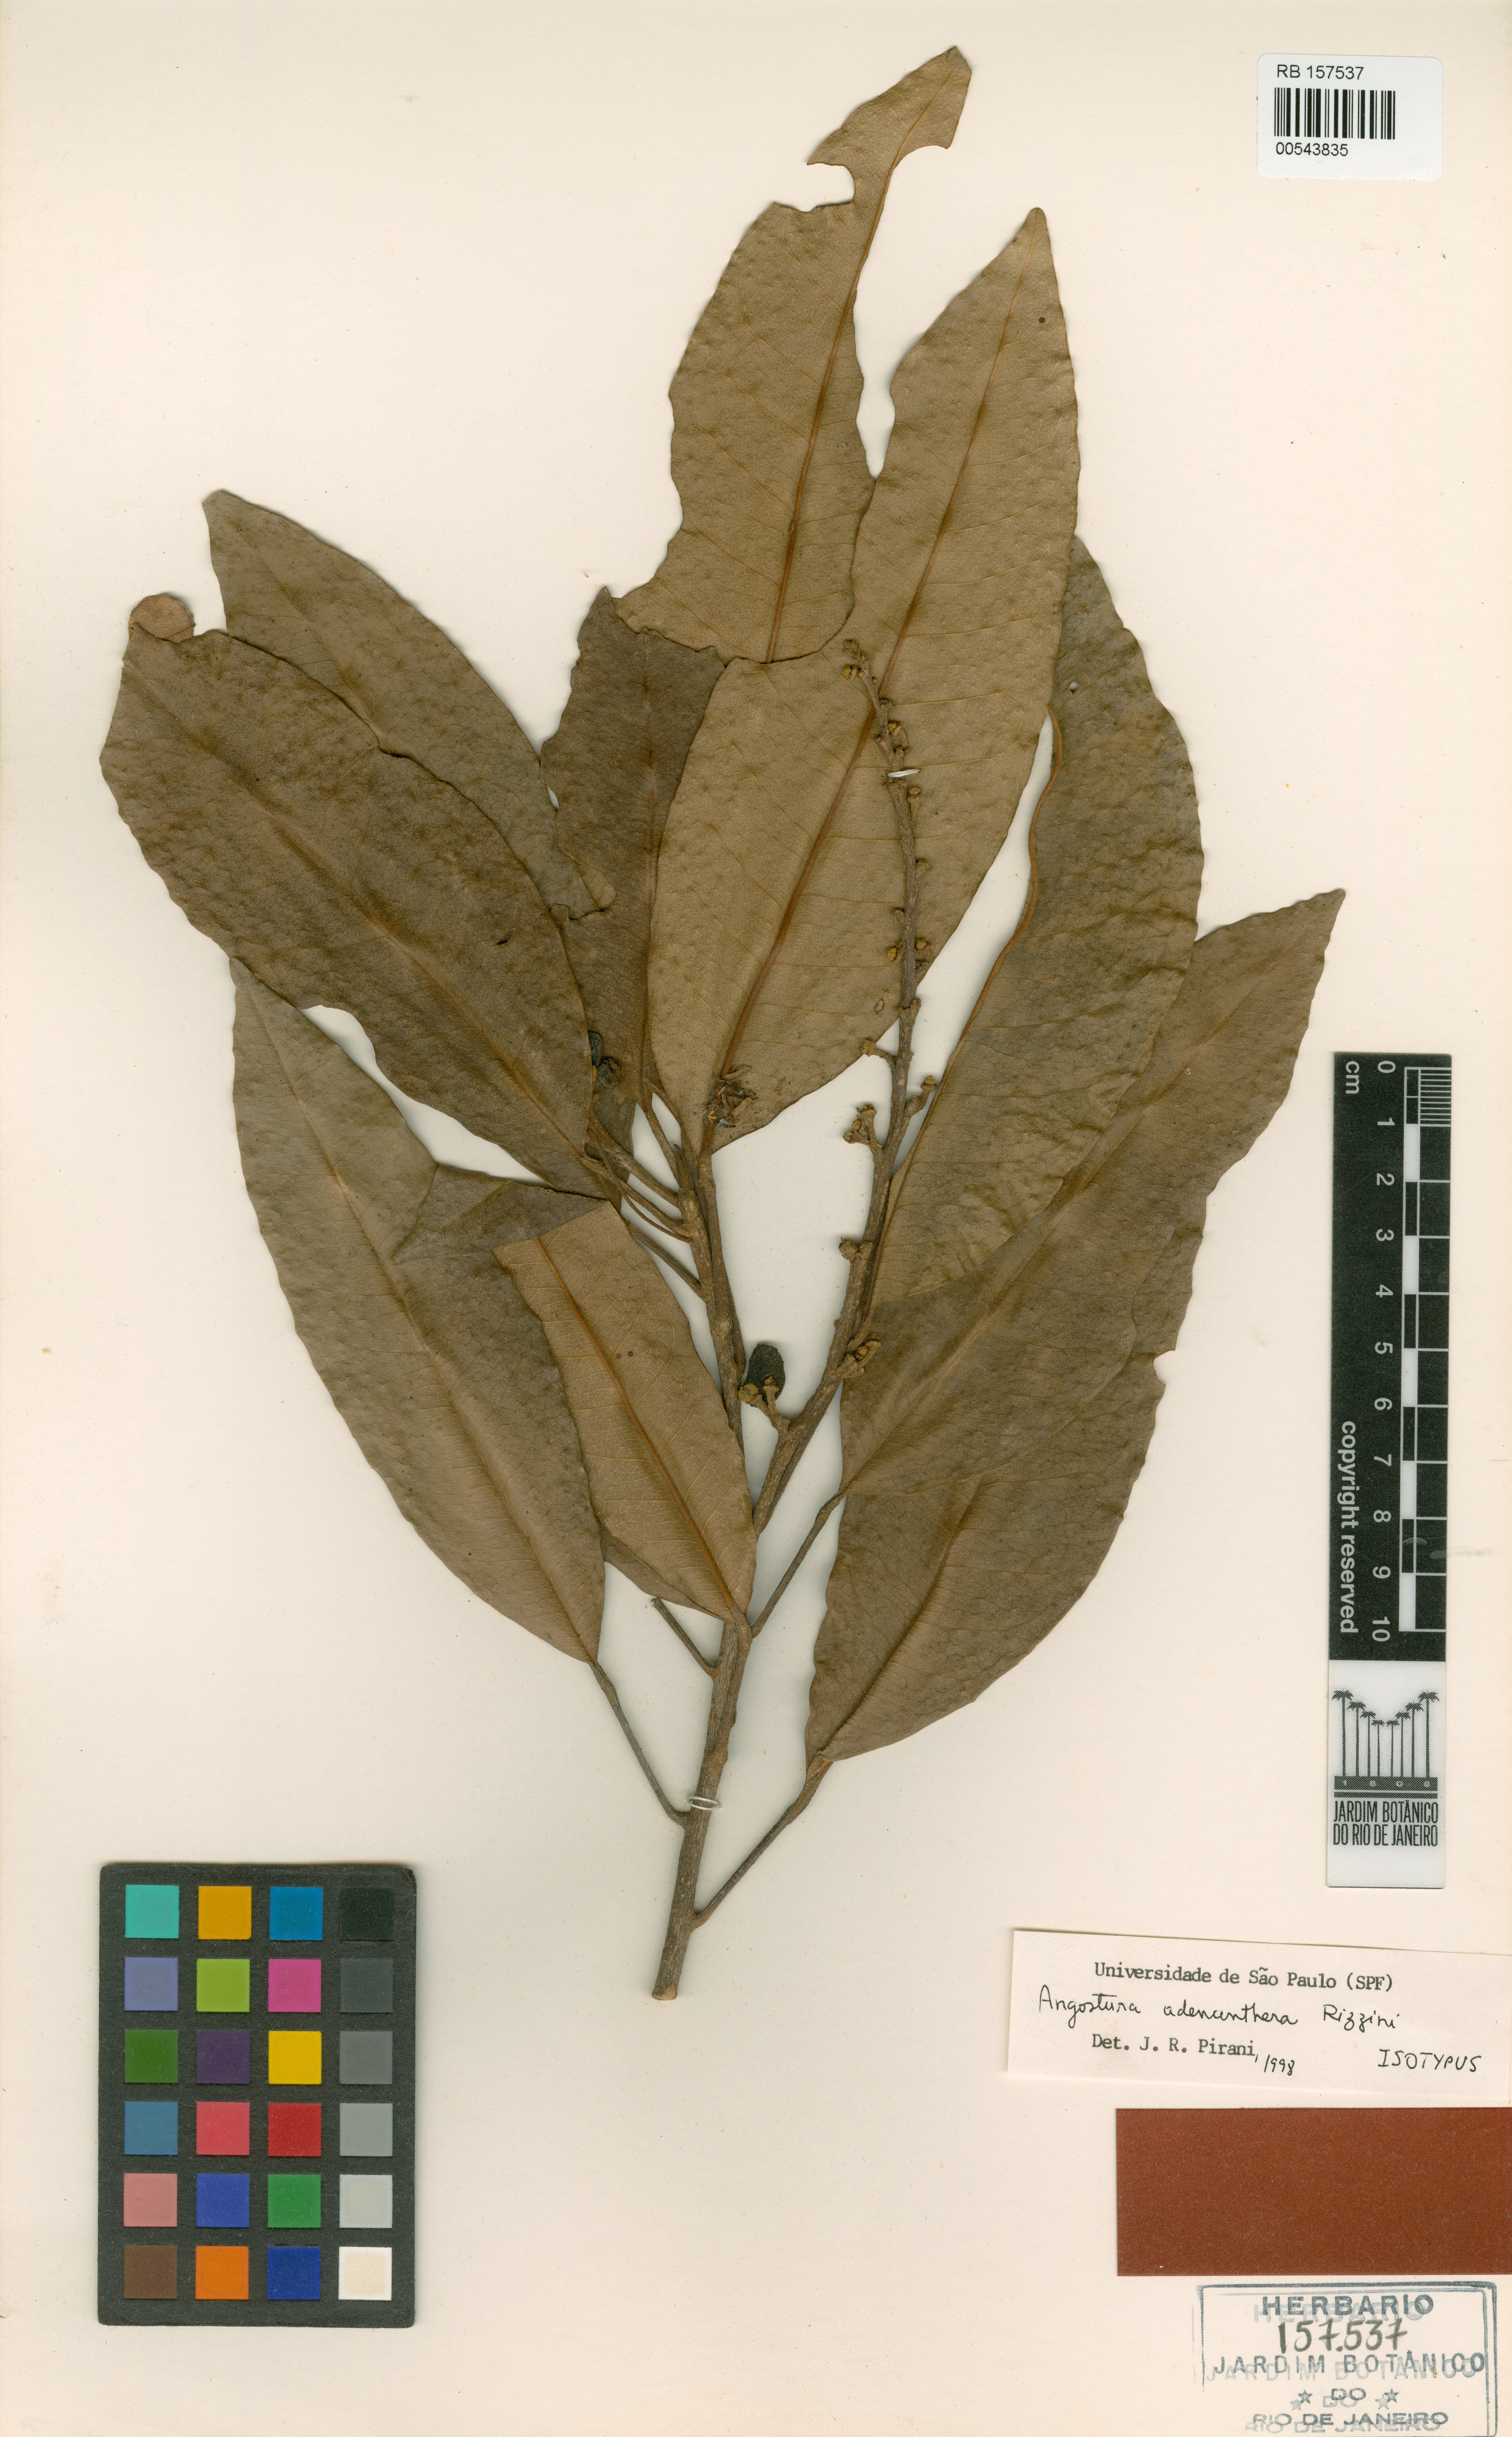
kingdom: Plantae
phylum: Tracheophyta
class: Magnoliopsida
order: Sapindales
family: Rutaceae
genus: Conchocarpus
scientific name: Conchocarpus adenantherus
